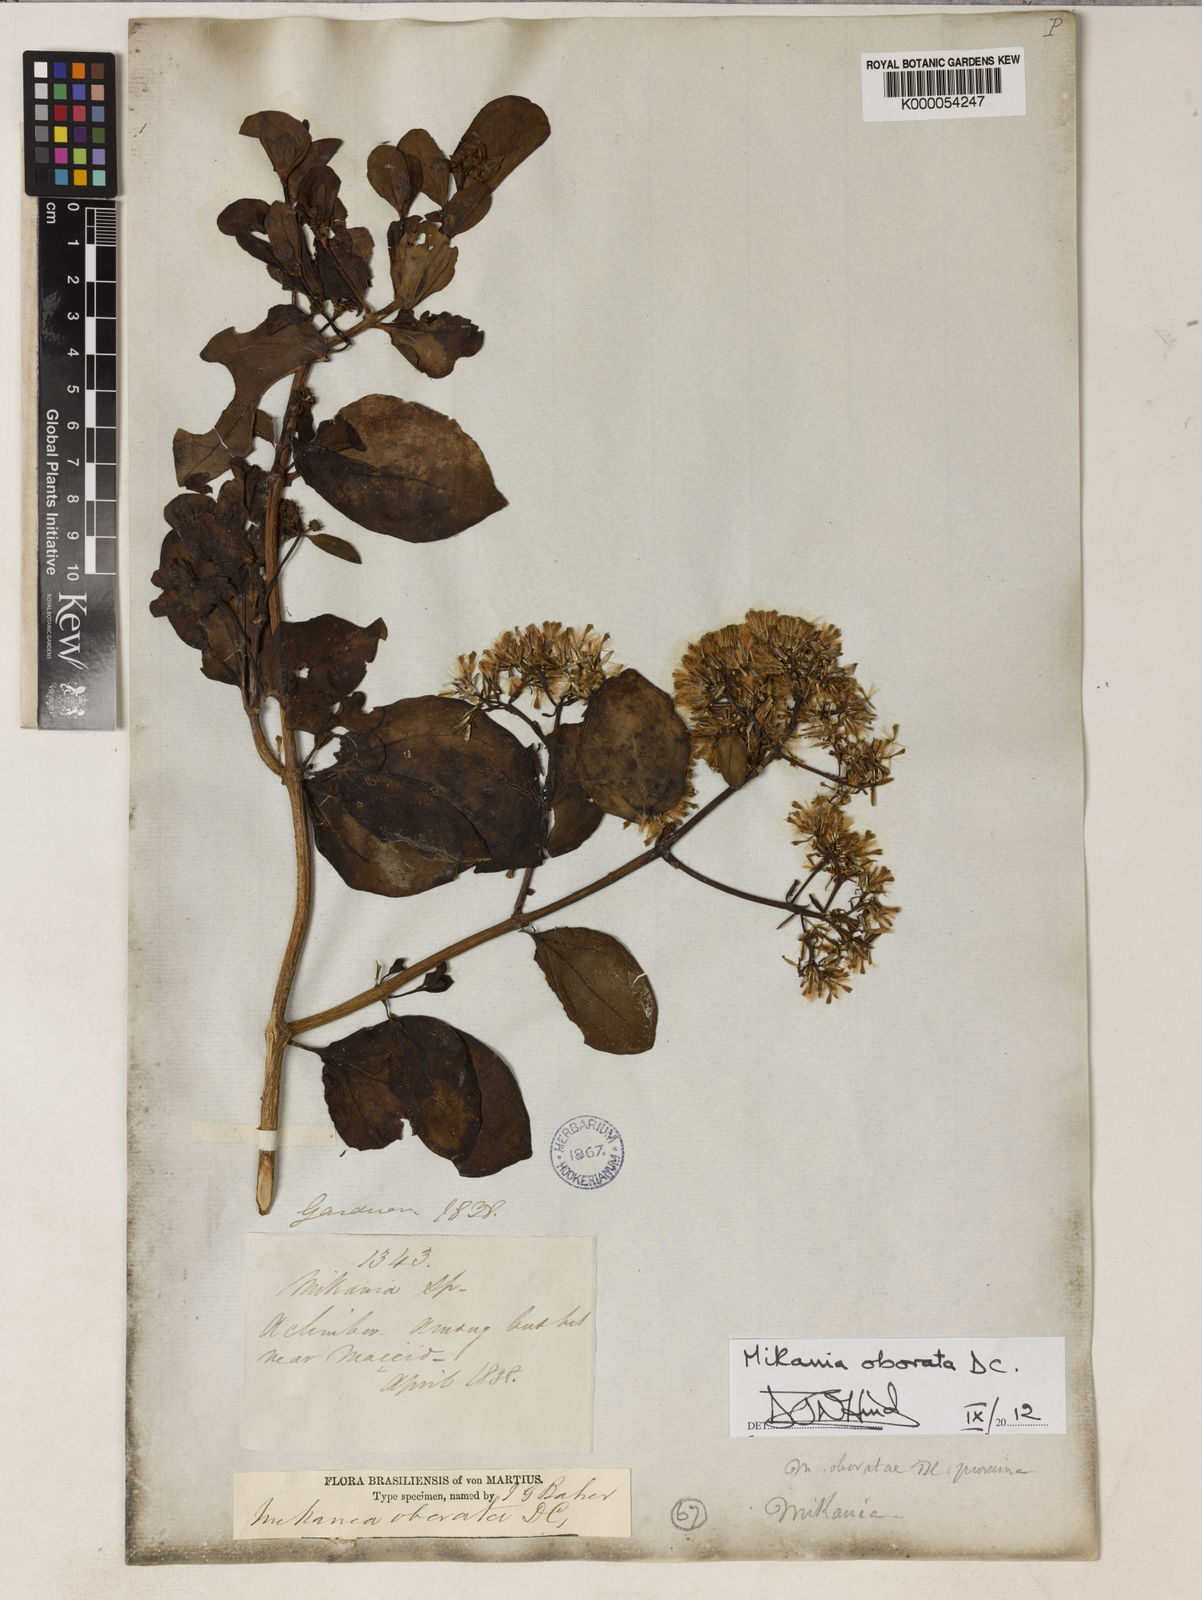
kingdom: Plantae
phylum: Tracheophyta
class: Magnoliopsida
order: Asterales
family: Asteraceae
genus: Mikania
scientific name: Mikania obovata
